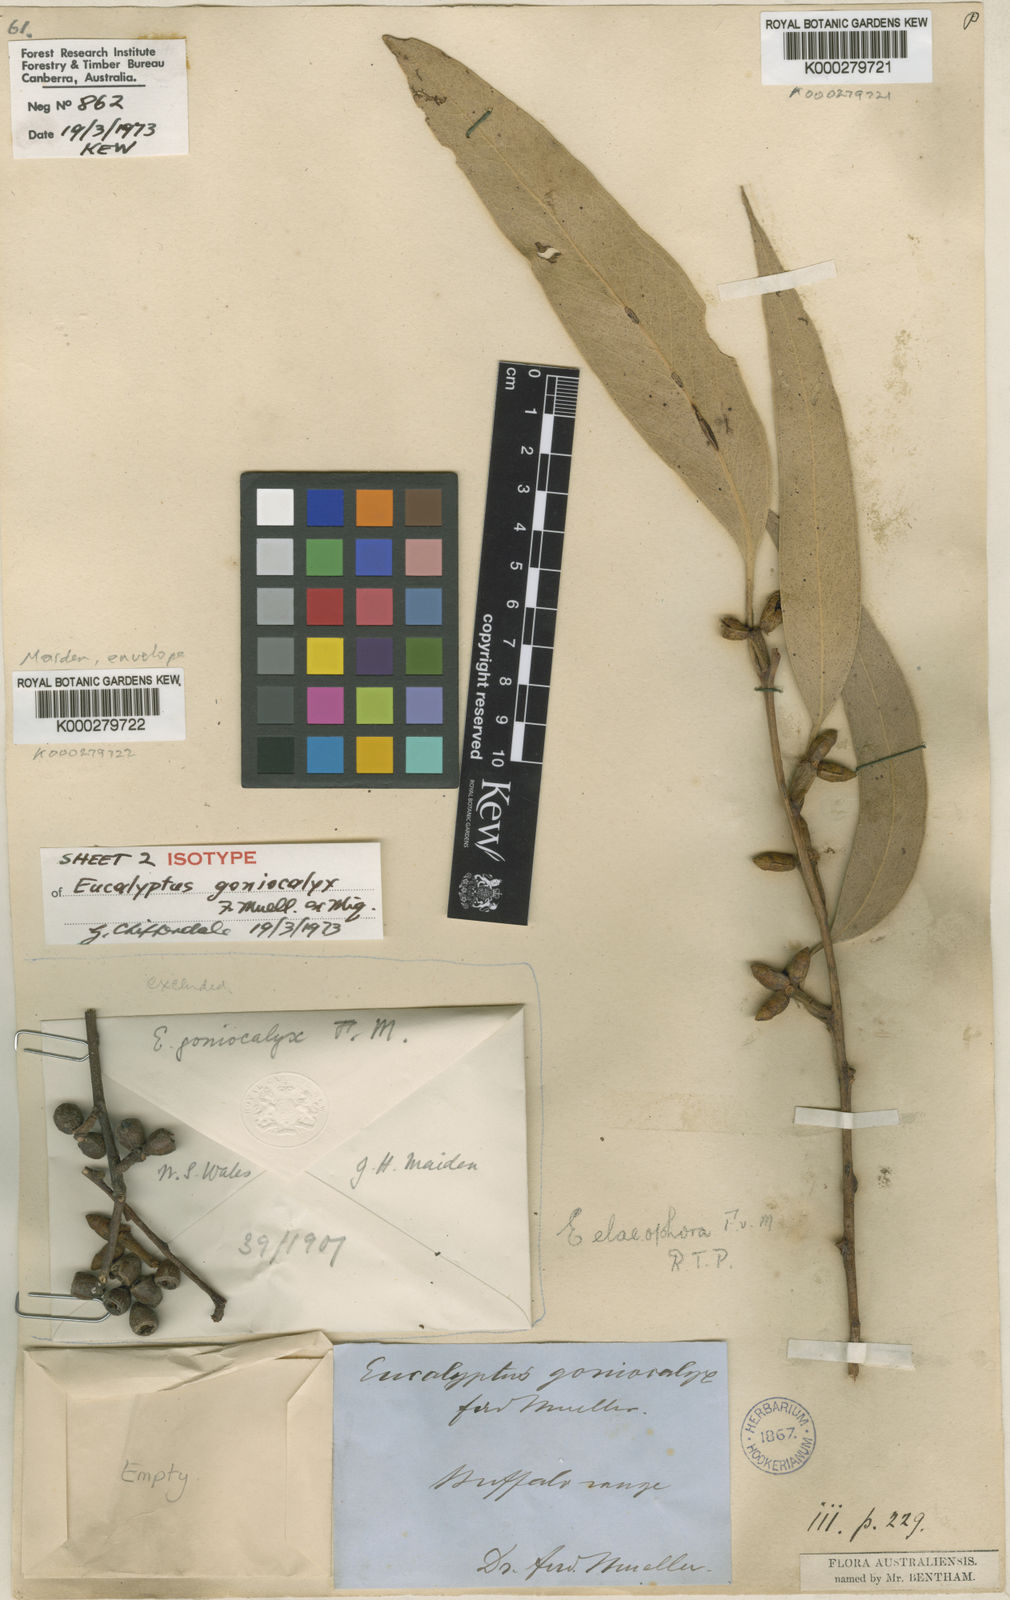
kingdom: Plantae
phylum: Tracheophyta
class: Magnoliopsida
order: Myrtales
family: Myrtaceae
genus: Eucalyptus
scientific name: Eucalyptus goniocalyx
